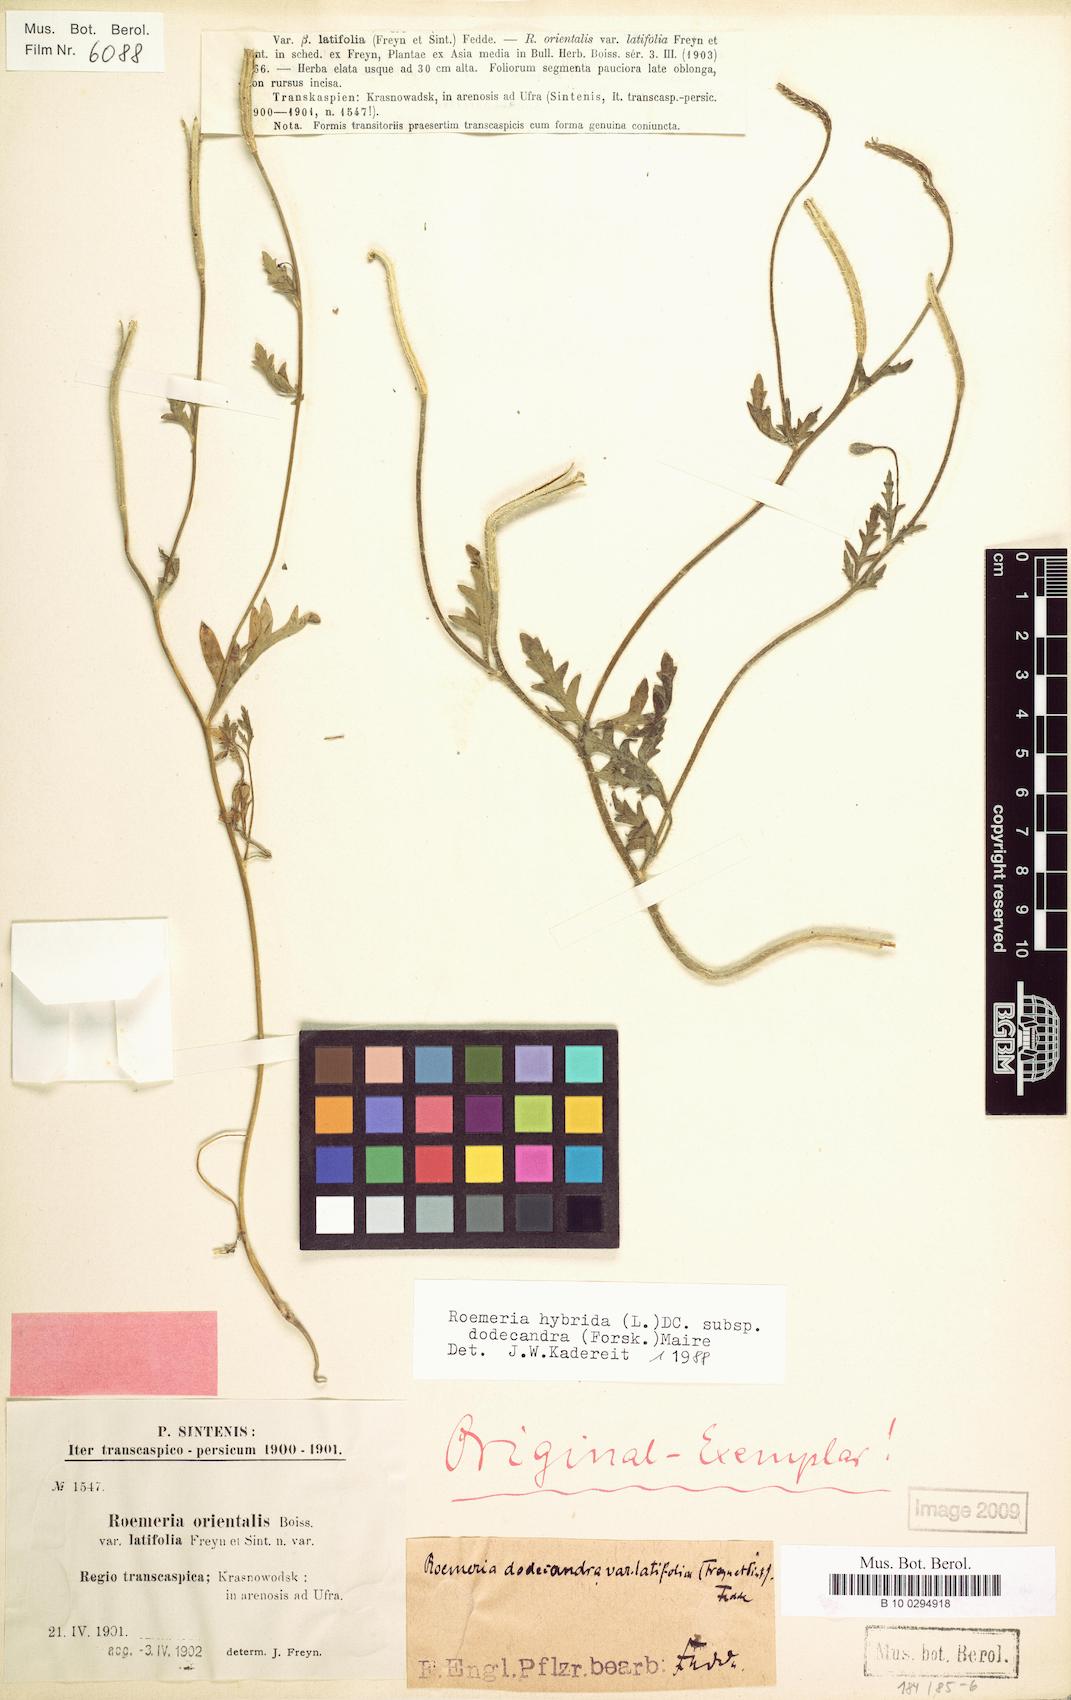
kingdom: Plantae
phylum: Tracheophyta
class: Magnoliopsida
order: Ranunculales
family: Papaveraceae
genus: Roemeria
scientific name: Roemeria hybrida
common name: Violet horned-poppy
